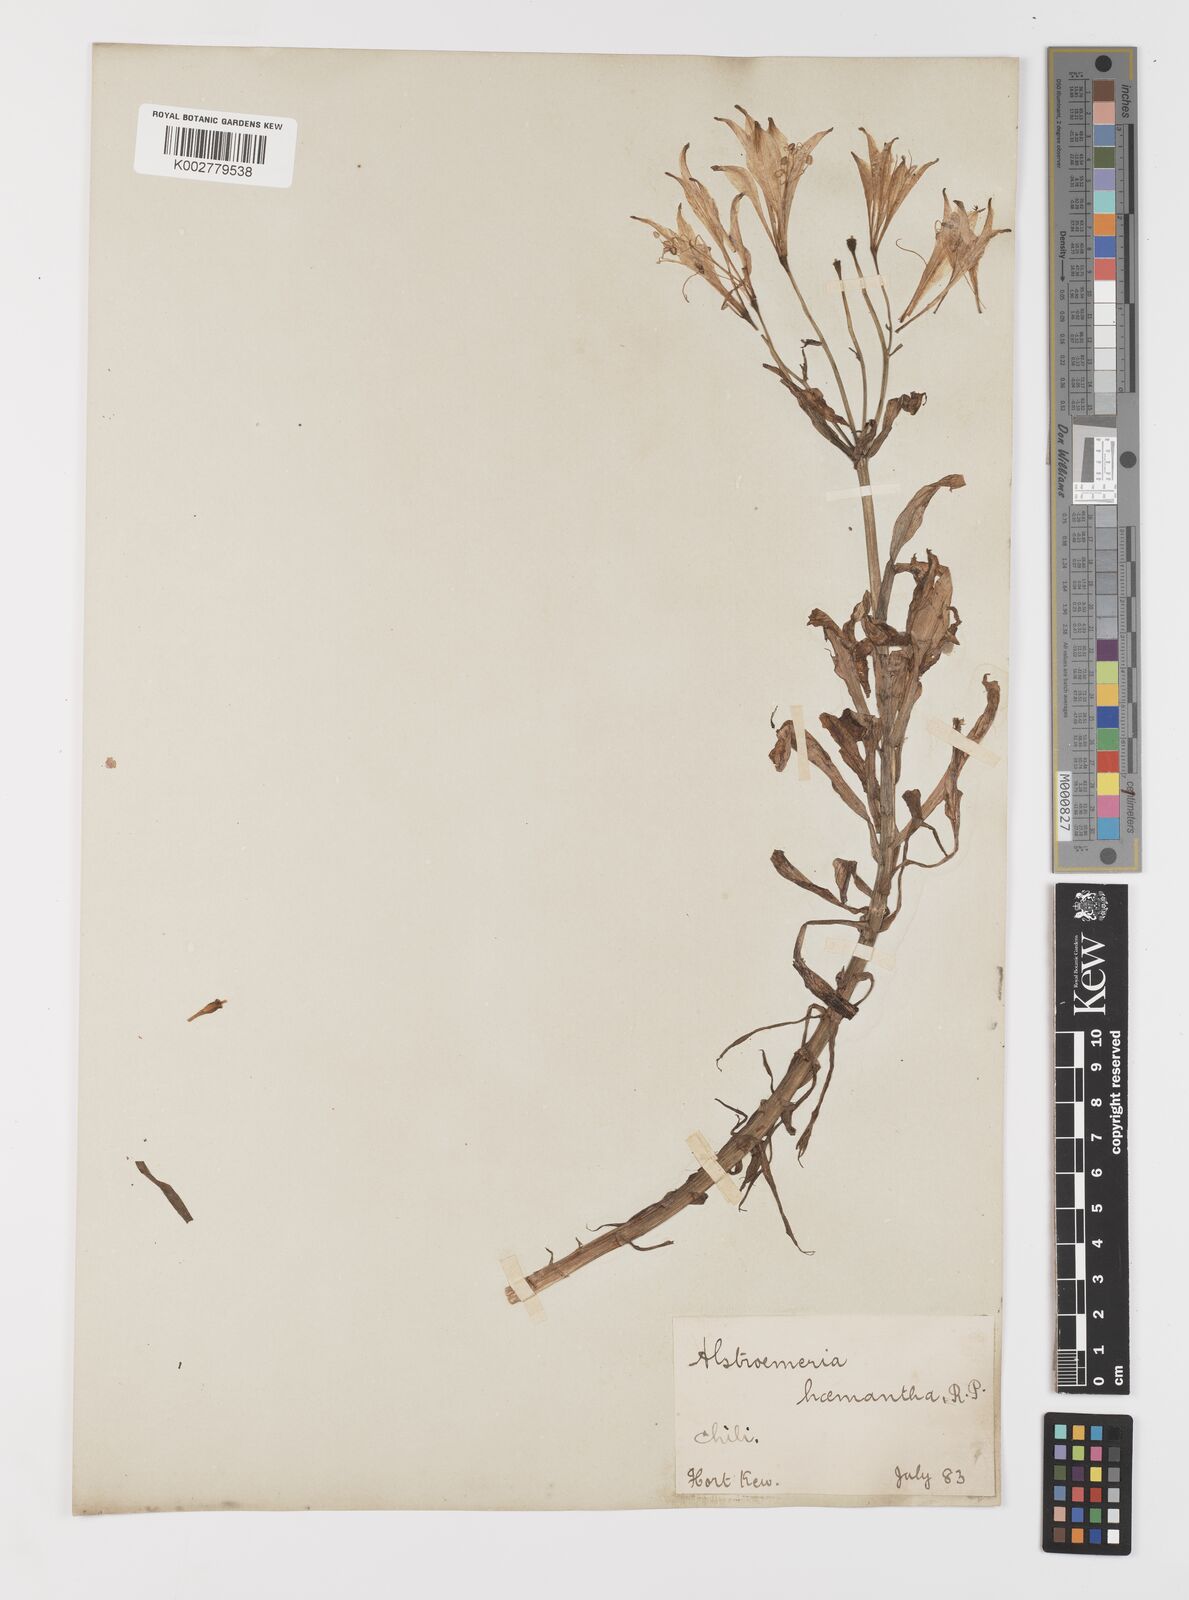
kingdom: Plantae
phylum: Tracheophyta
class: Liliopsida
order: Liliales
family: Alstroemeriaceae
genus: Alstroemeria
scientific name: Alstroemeria ligtu
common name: St. martin's-flower
